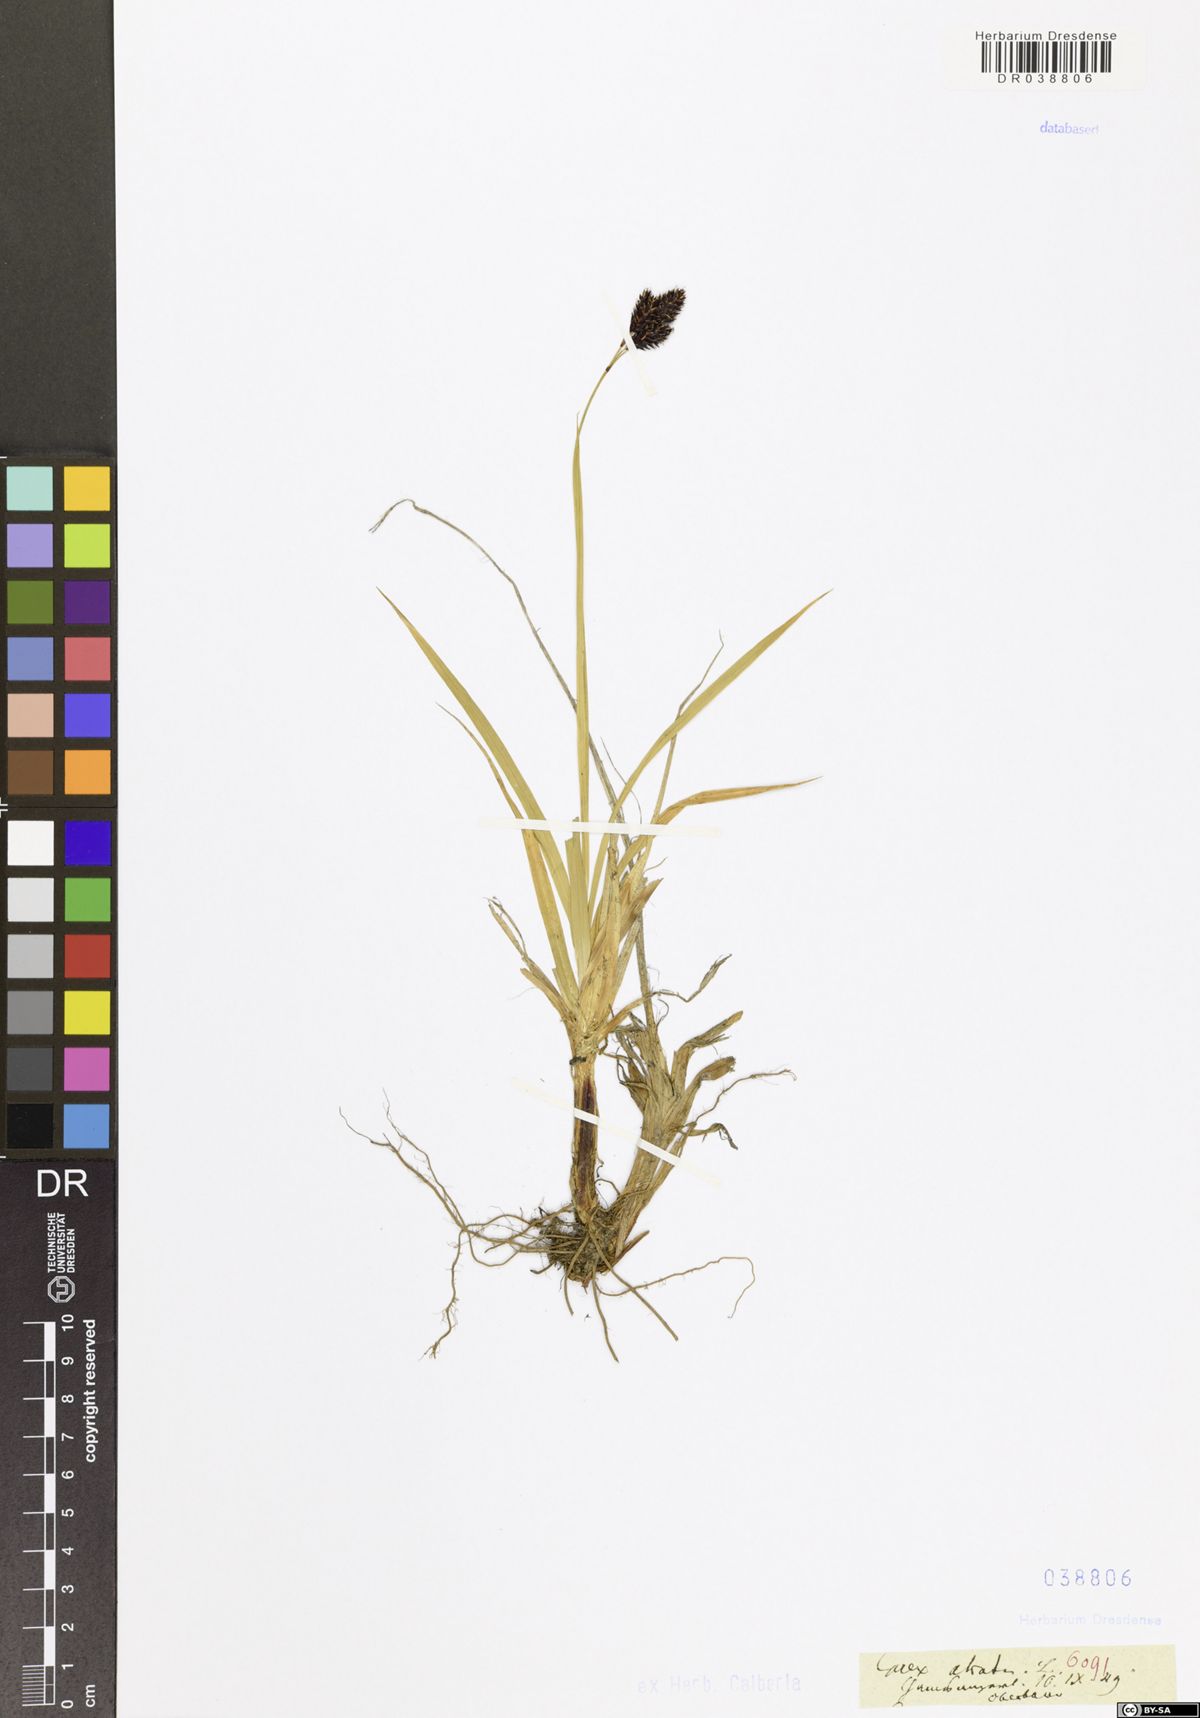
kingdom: Plantae
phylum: Tracheophyta
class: Liliopsida
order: Poales
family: Cyperaceae
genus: Carex
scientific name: Carex atrata
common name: Black alpine sedge
